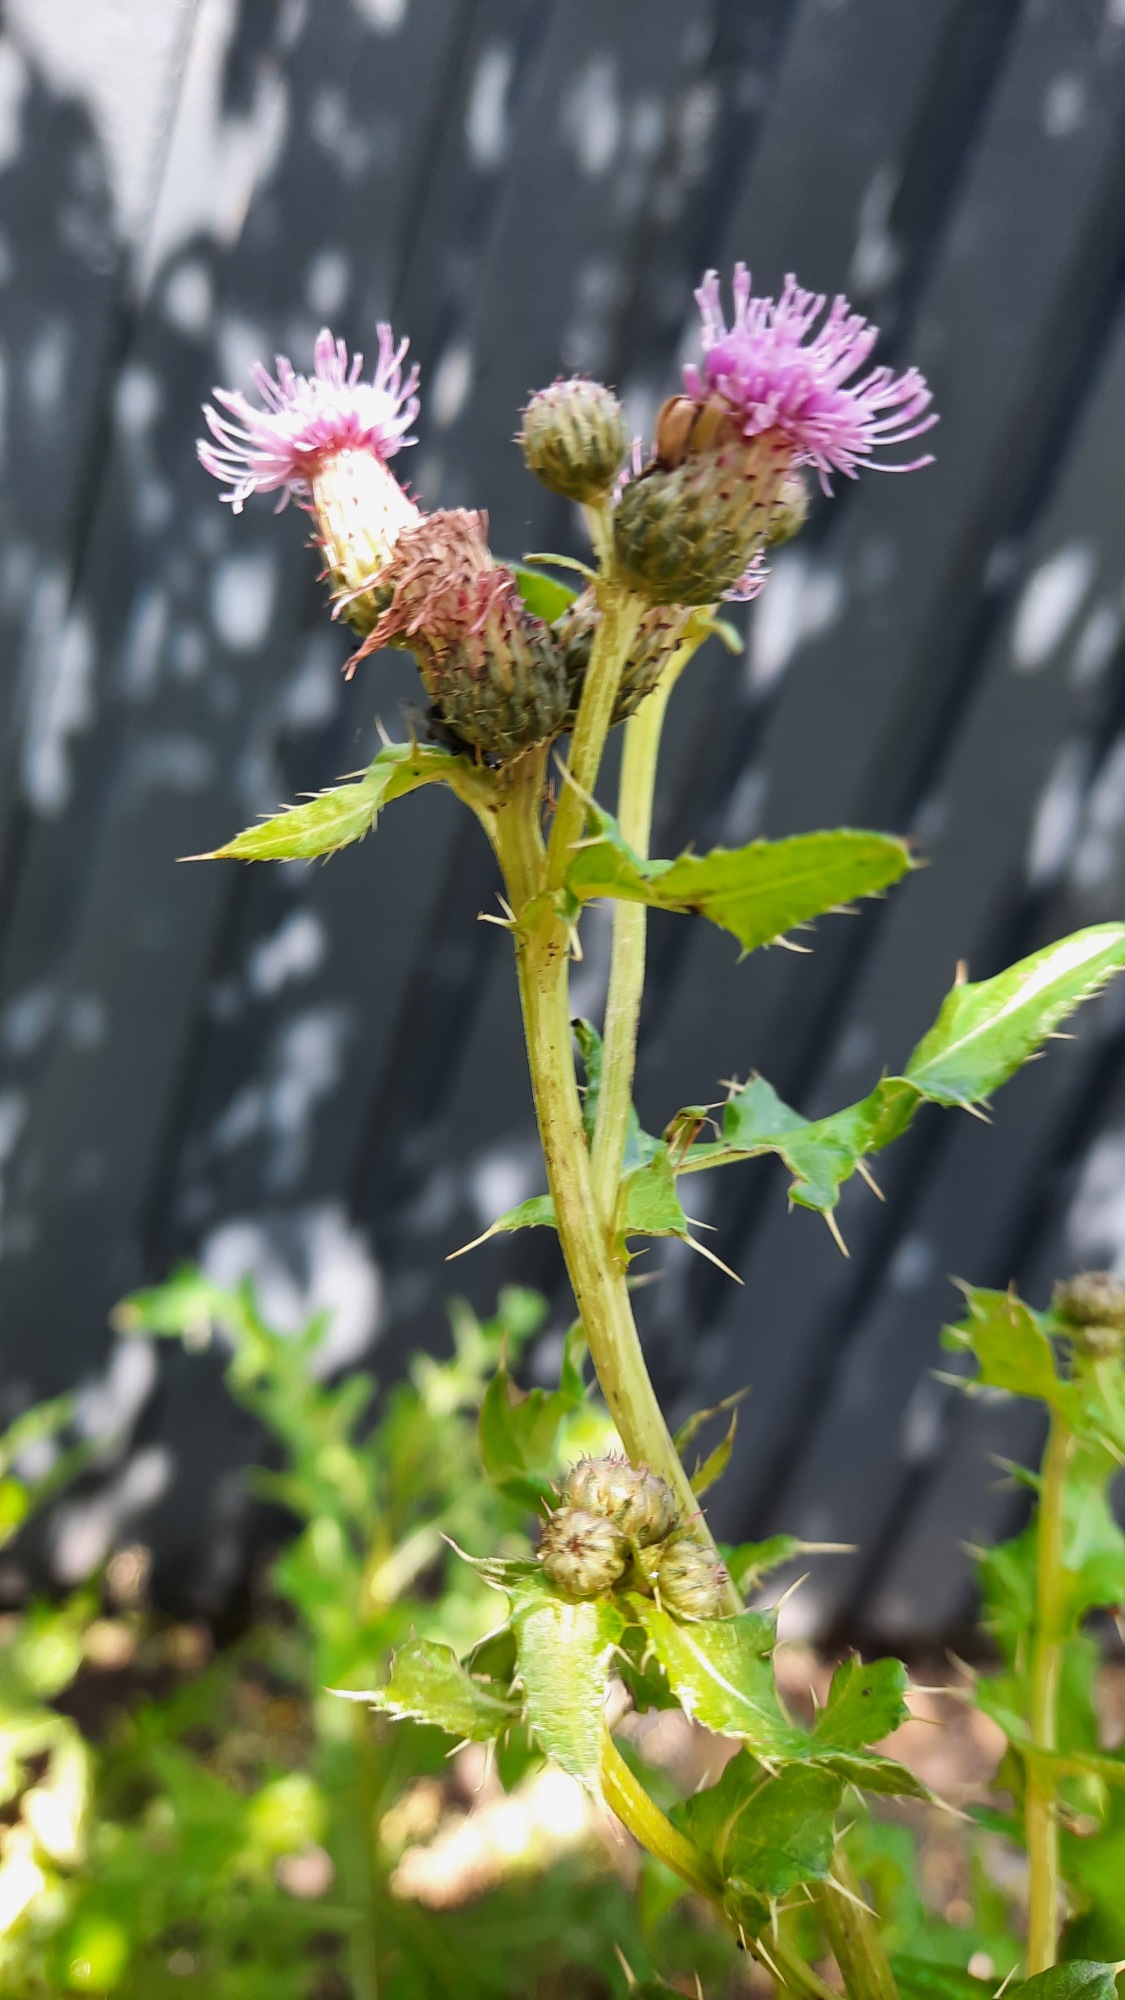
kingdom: Plantae
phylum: Tracheophyta
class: Magnoliopsida
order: Asterales
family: Asteraceae
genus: Cirsium
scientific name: Cirsium arvense
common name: Ager-tidsel
